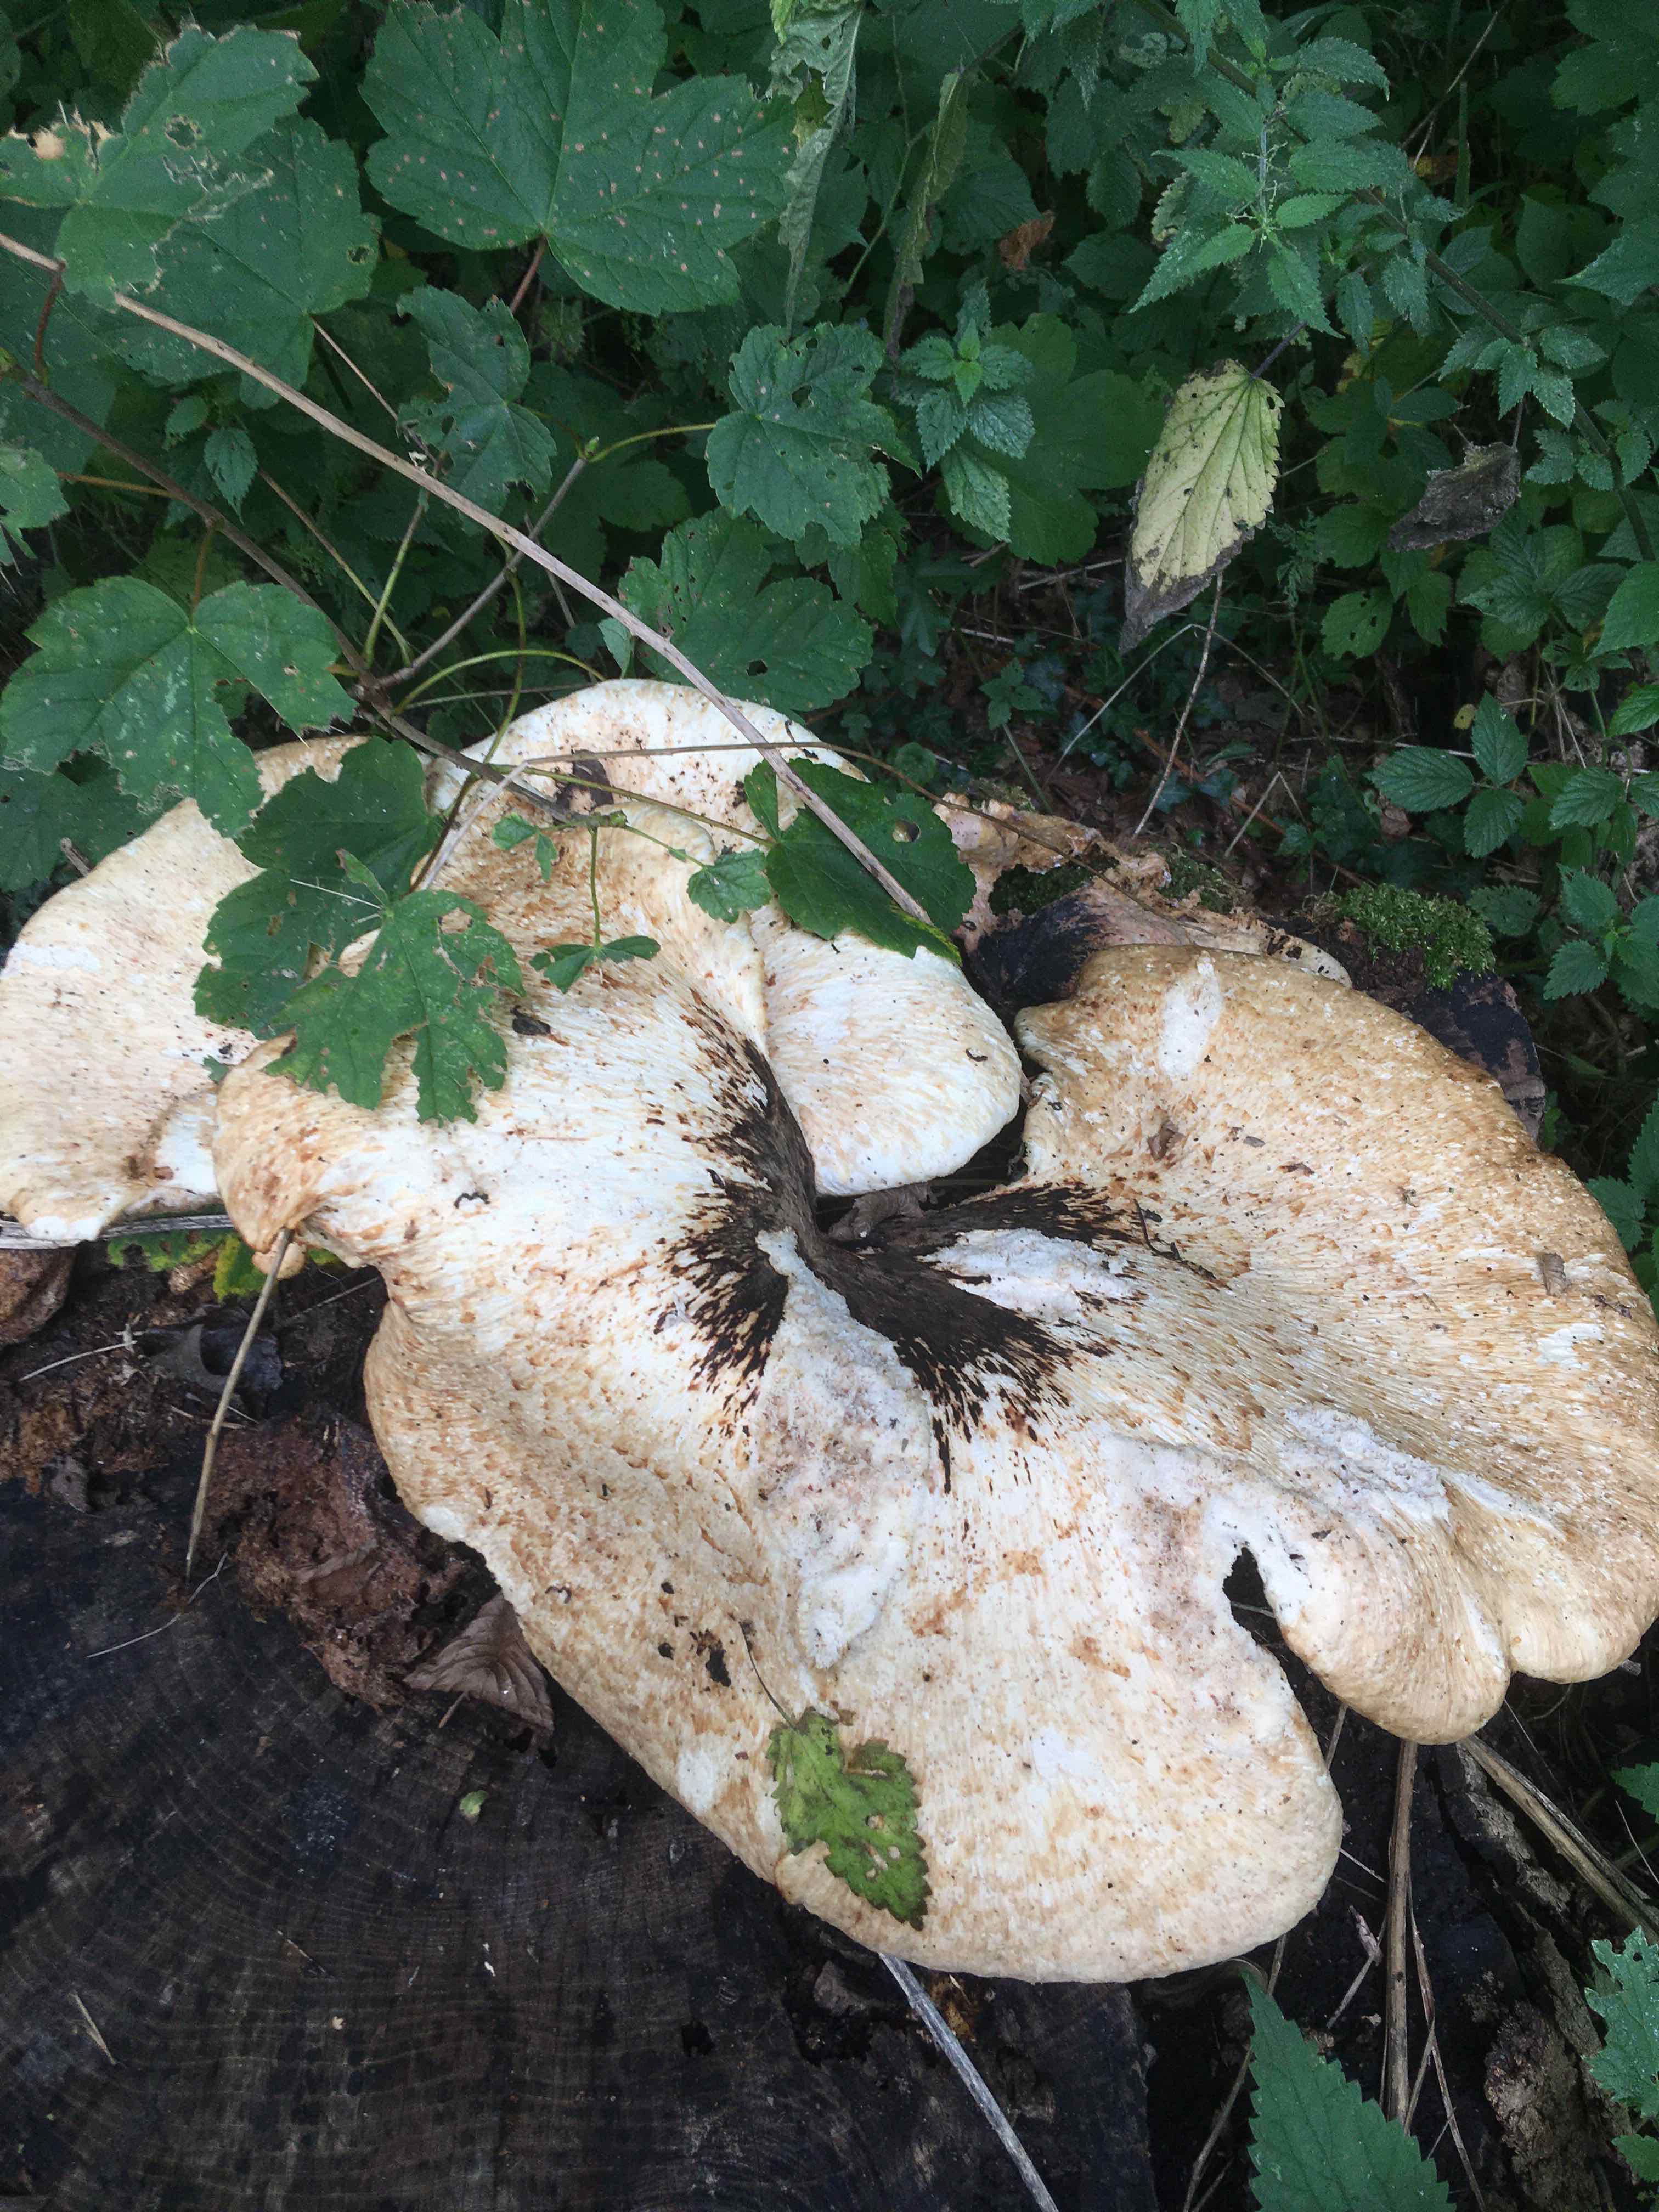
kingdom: Fungi
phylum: Basidiomycota
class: Agaricomycetes
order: Polyporales
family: Polyporaceae
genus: Cerioporus
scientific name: Cerioporus squamosus
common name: skællet stilkporesvamp
